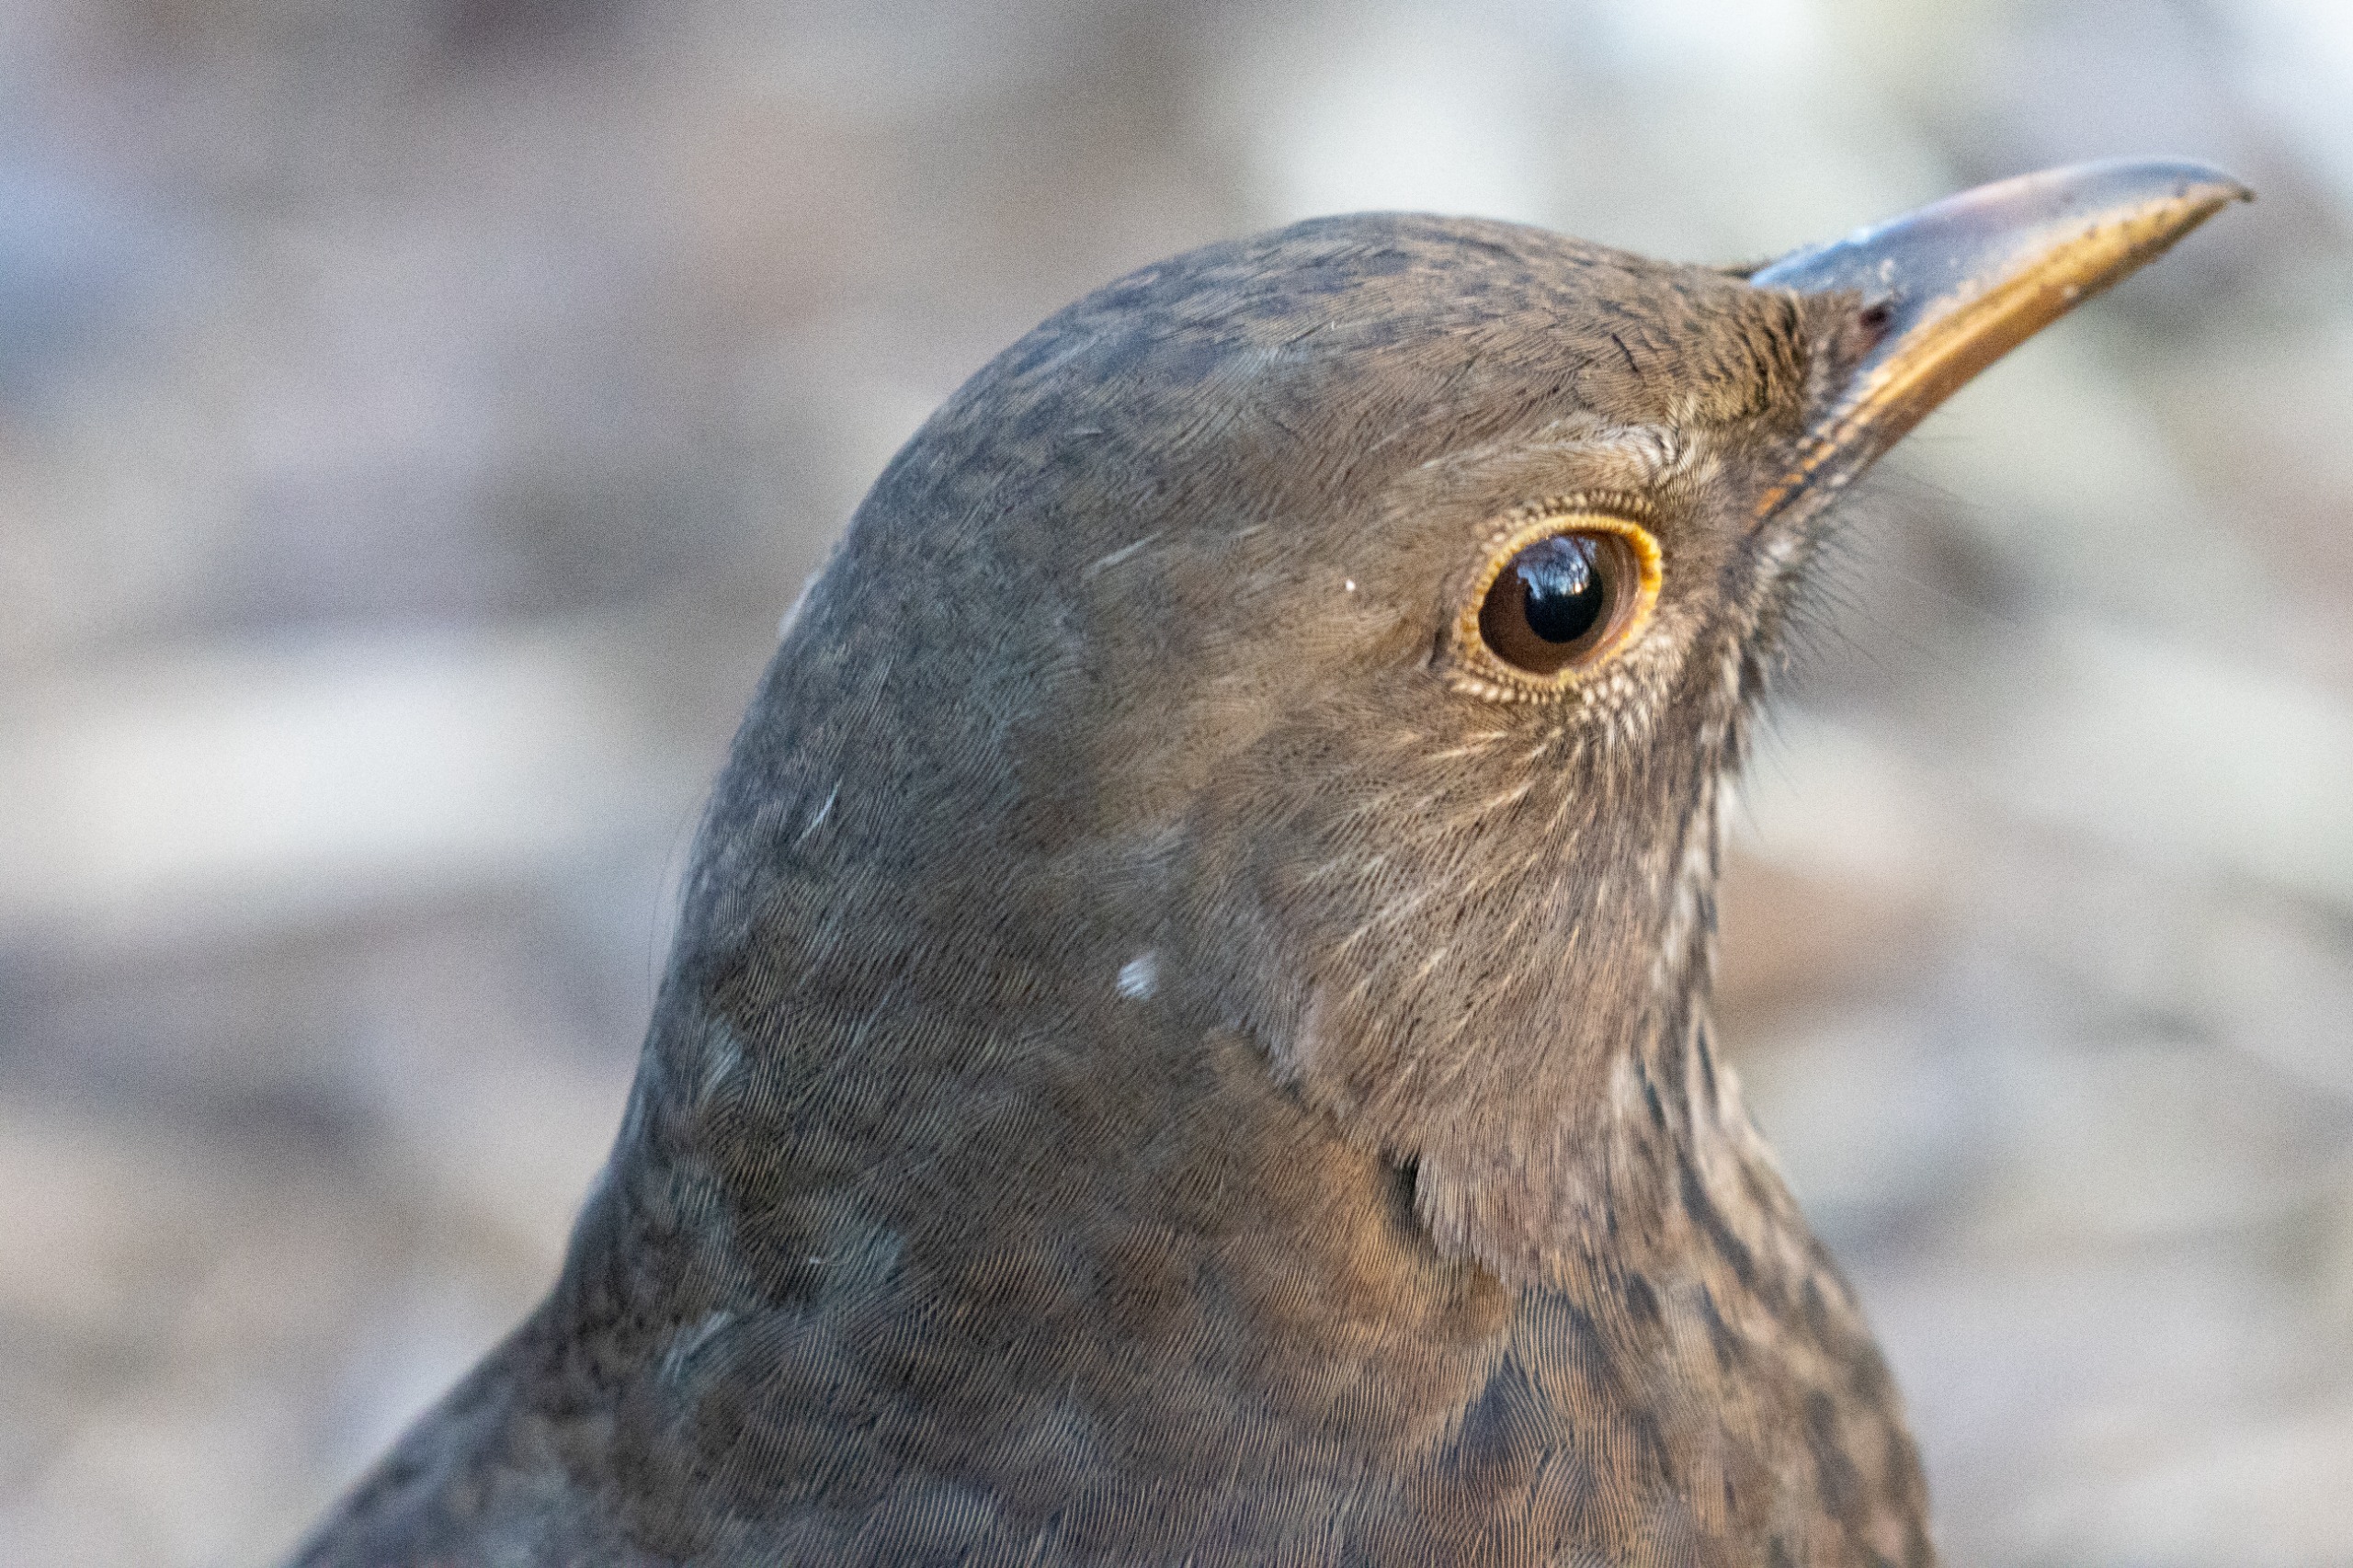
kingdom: Animalia
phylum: Chordata
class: Aves
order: Passeriformes
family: Turdidae
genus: Turdus
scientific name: Turdus merula
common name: Solsort
